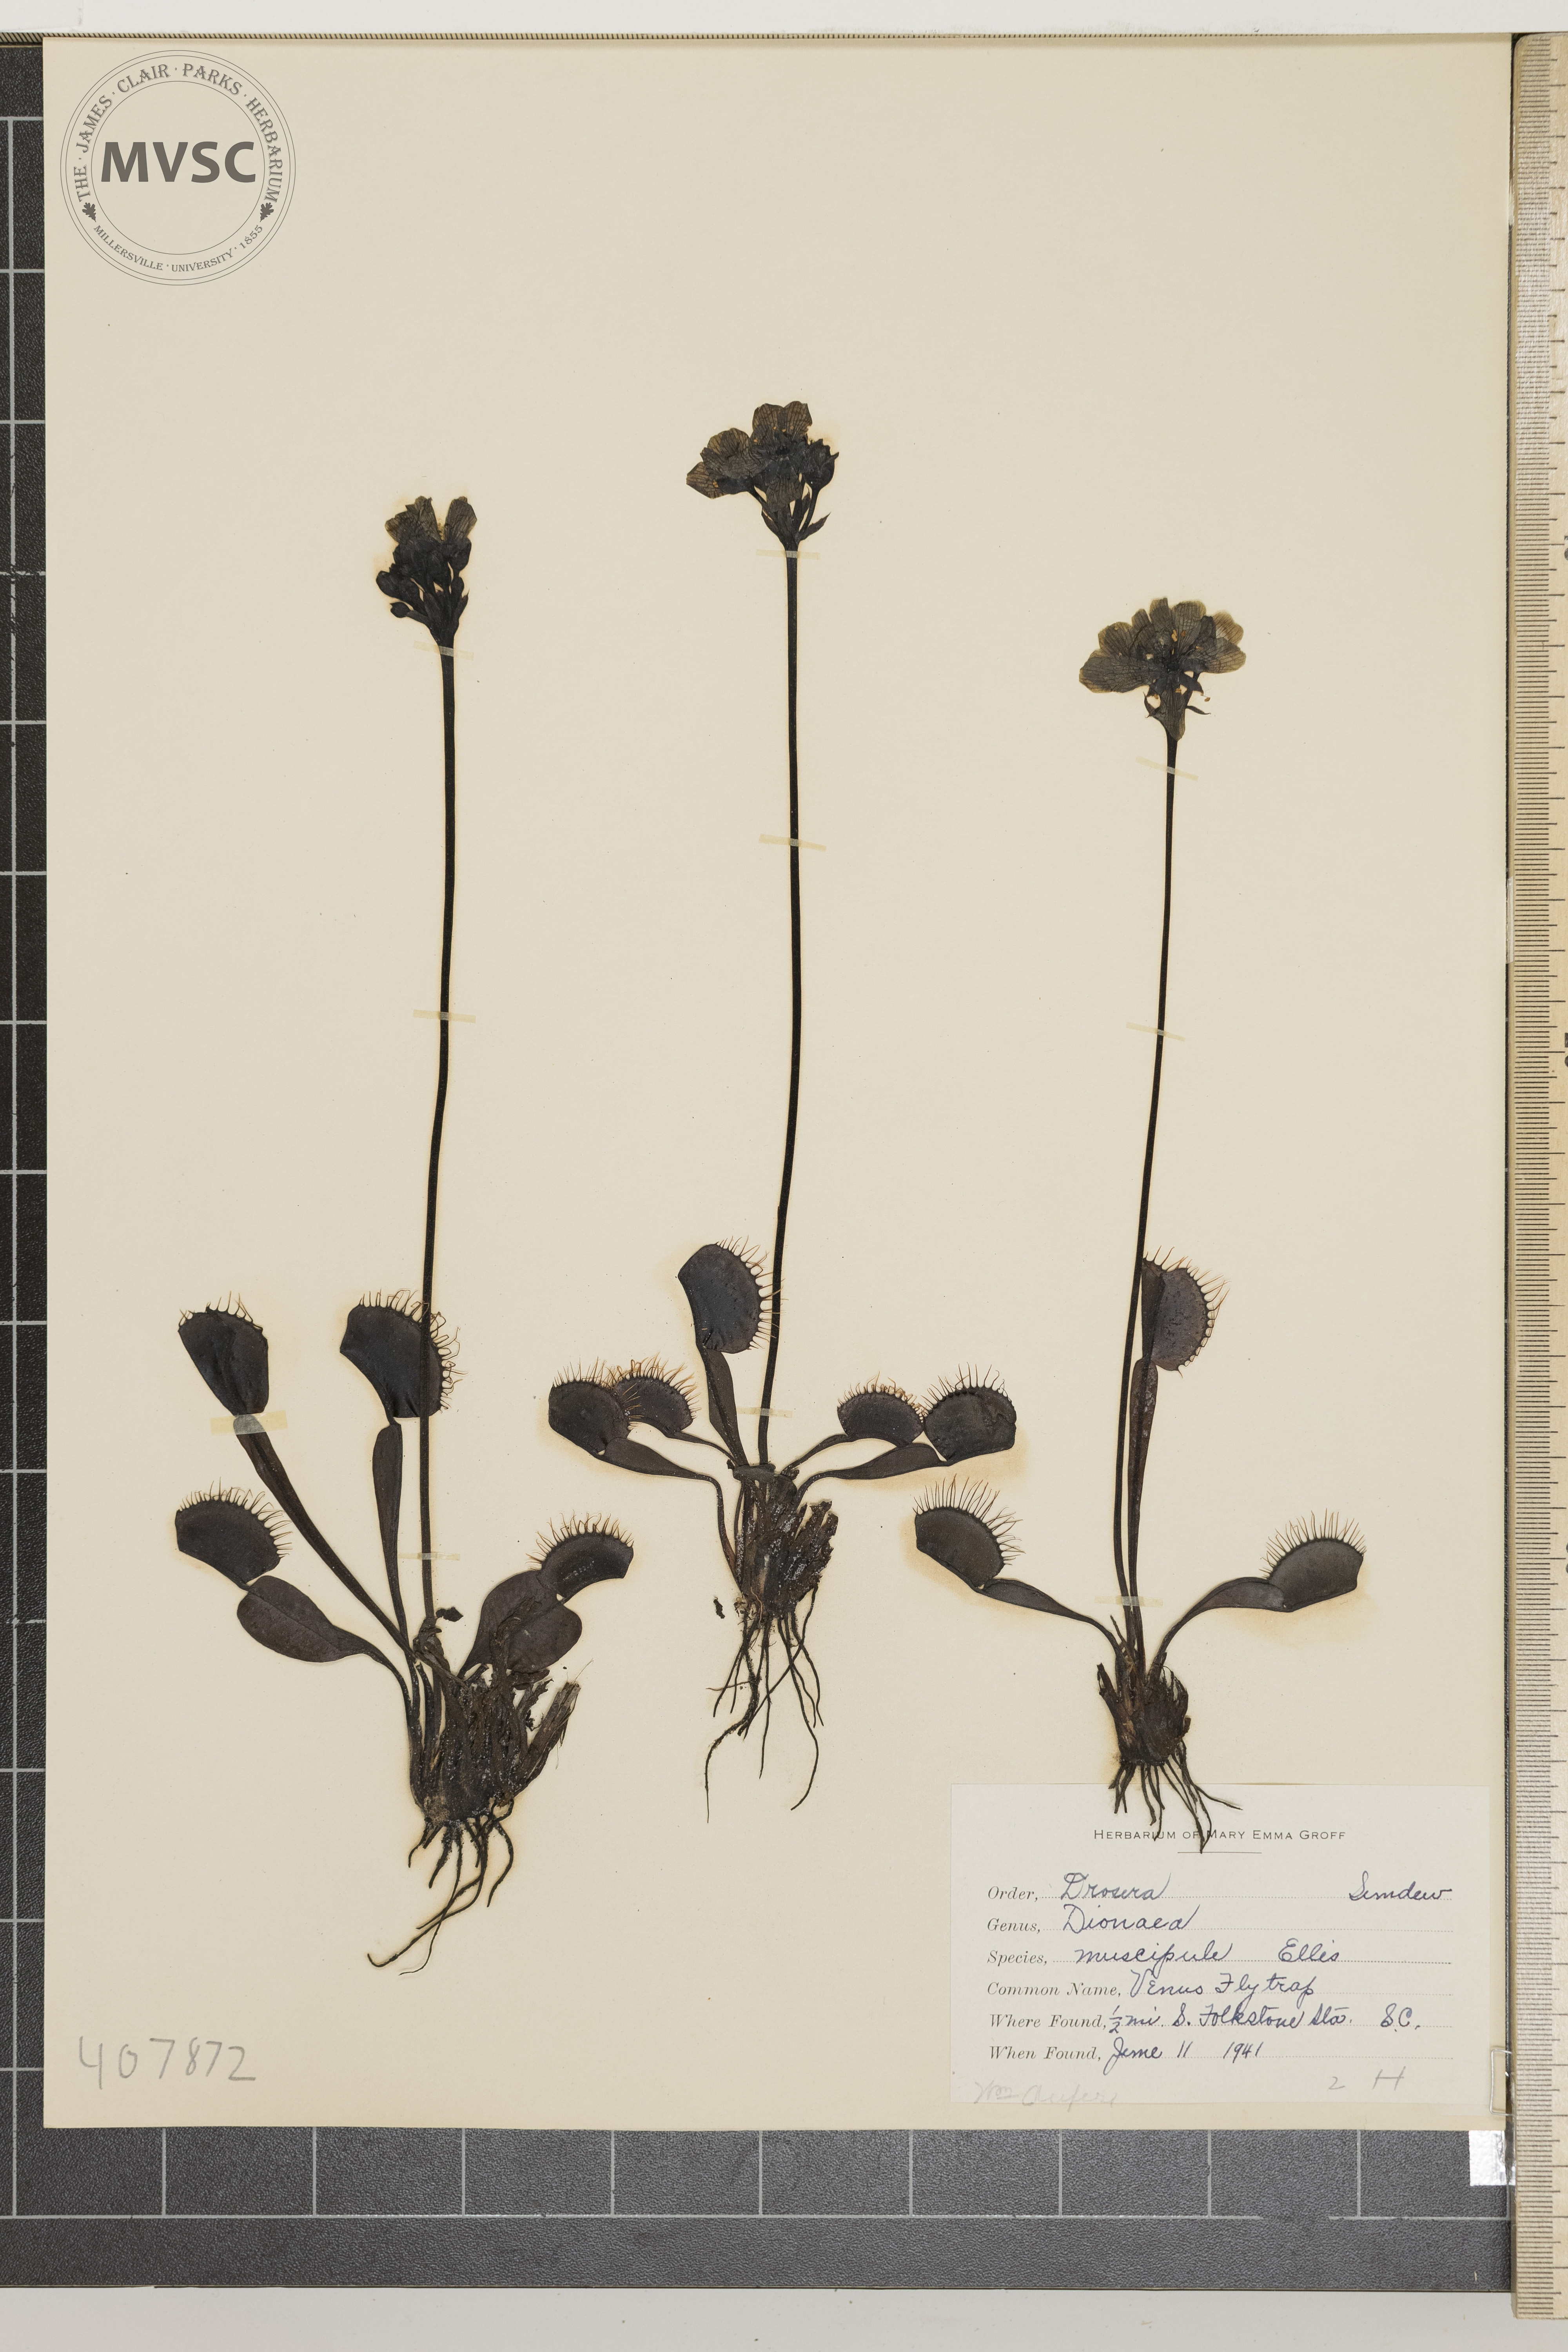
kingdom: Plantae
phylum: Tracheophyta
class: Magnoliopsida
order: Caryophyllales
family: Droseraceae
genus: Dionaea
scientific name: Dionaea muscipula
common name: Venus Flytrap
